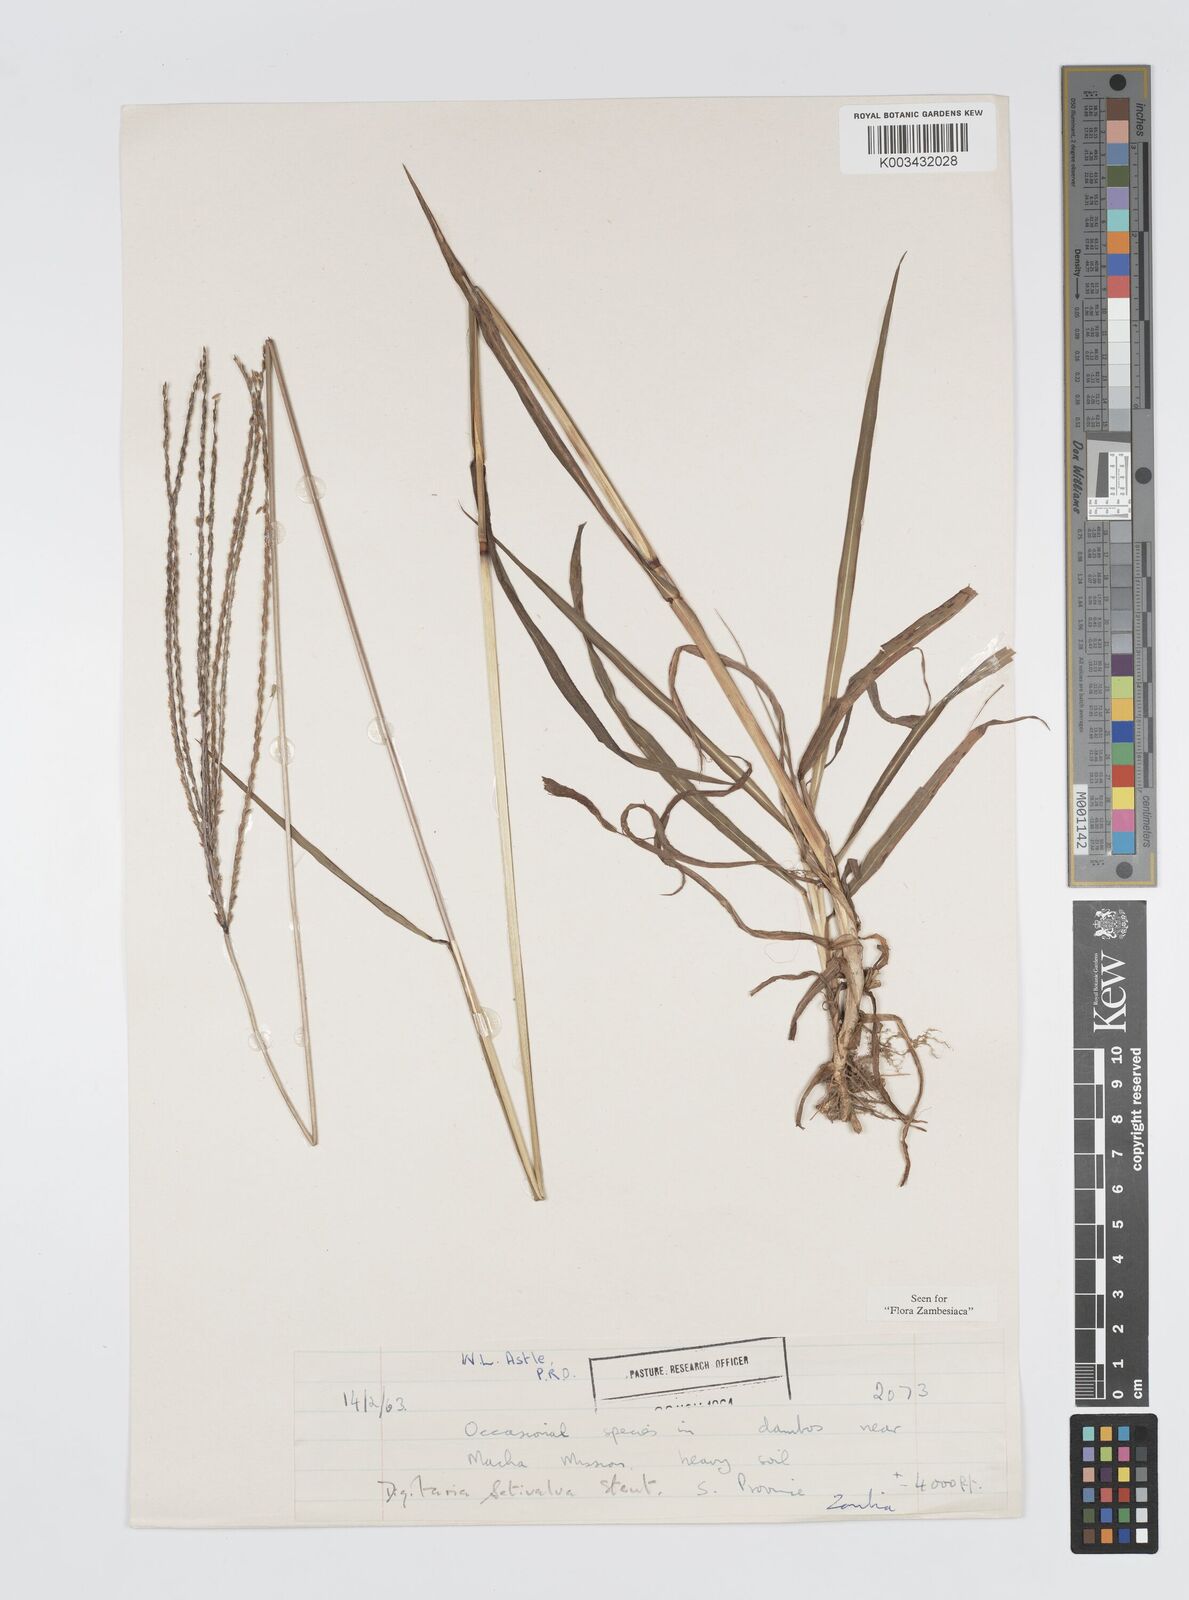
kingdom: Plantae
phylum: Tracheophyta
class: Liliopsida
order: Poales
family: Poaceae
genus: Digitaria
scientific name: Digitaria milanjiana
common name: Madagascar crabgrass
